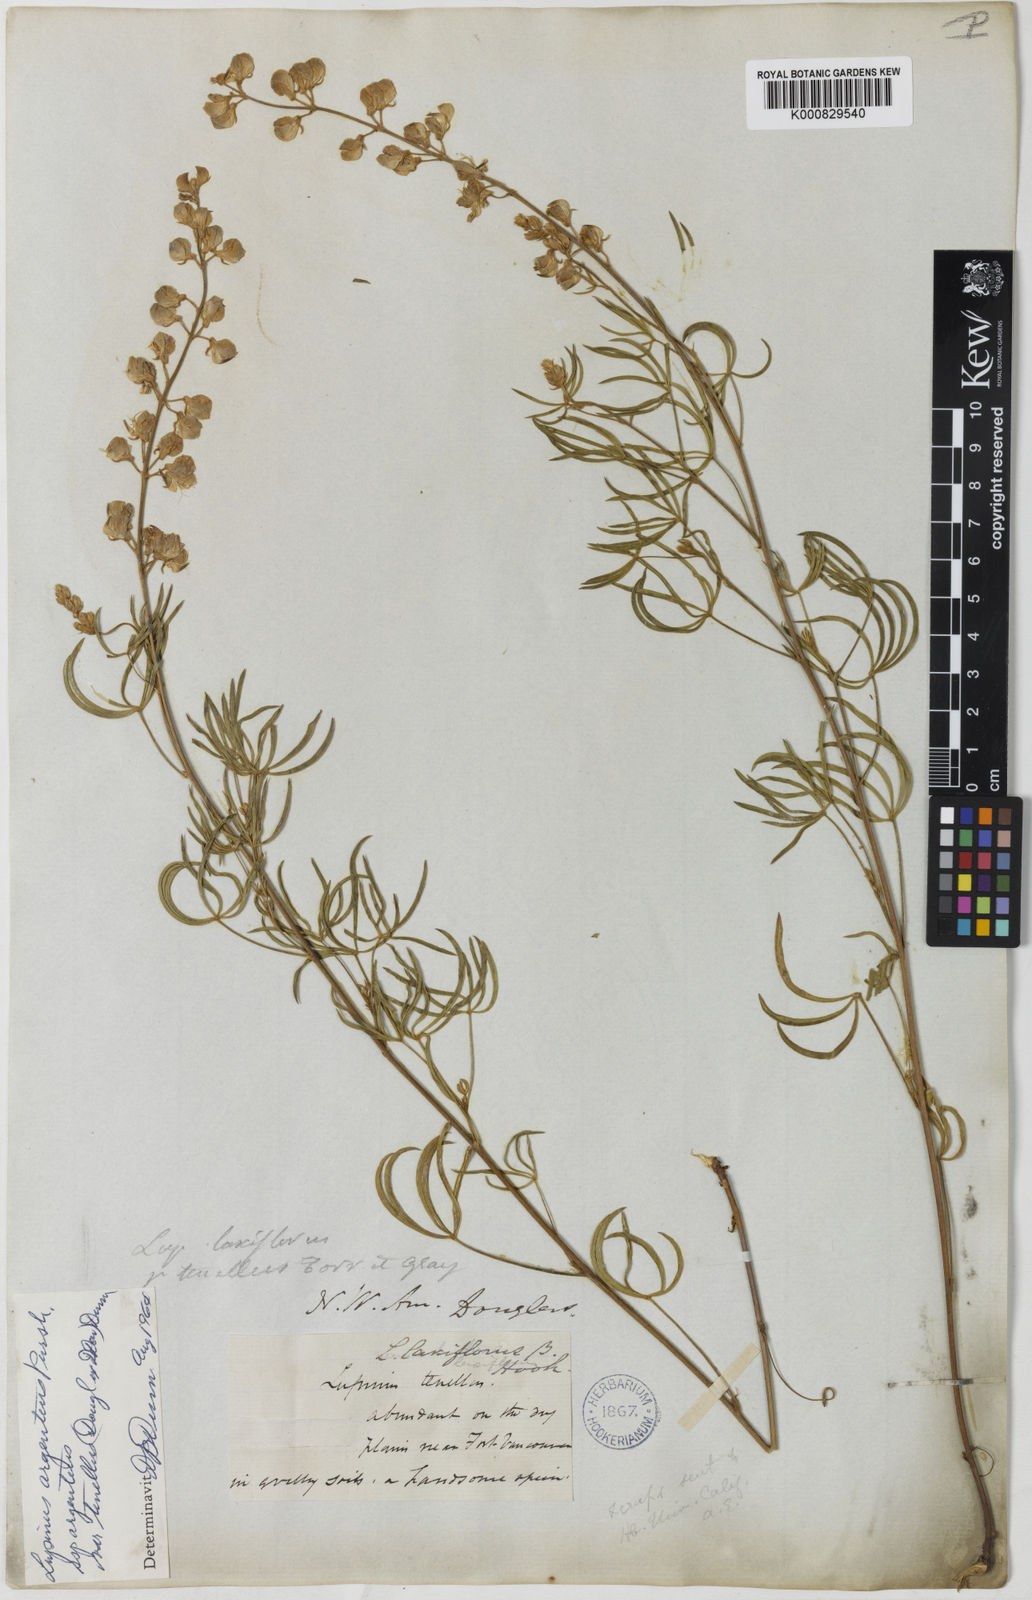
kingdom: Plantae
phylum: Tracheophyta
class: Magnoliopsida
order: Fabales
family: Fabaceae
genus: Lupinus
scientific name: Lupinus argenteus
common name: Silvery lupine
